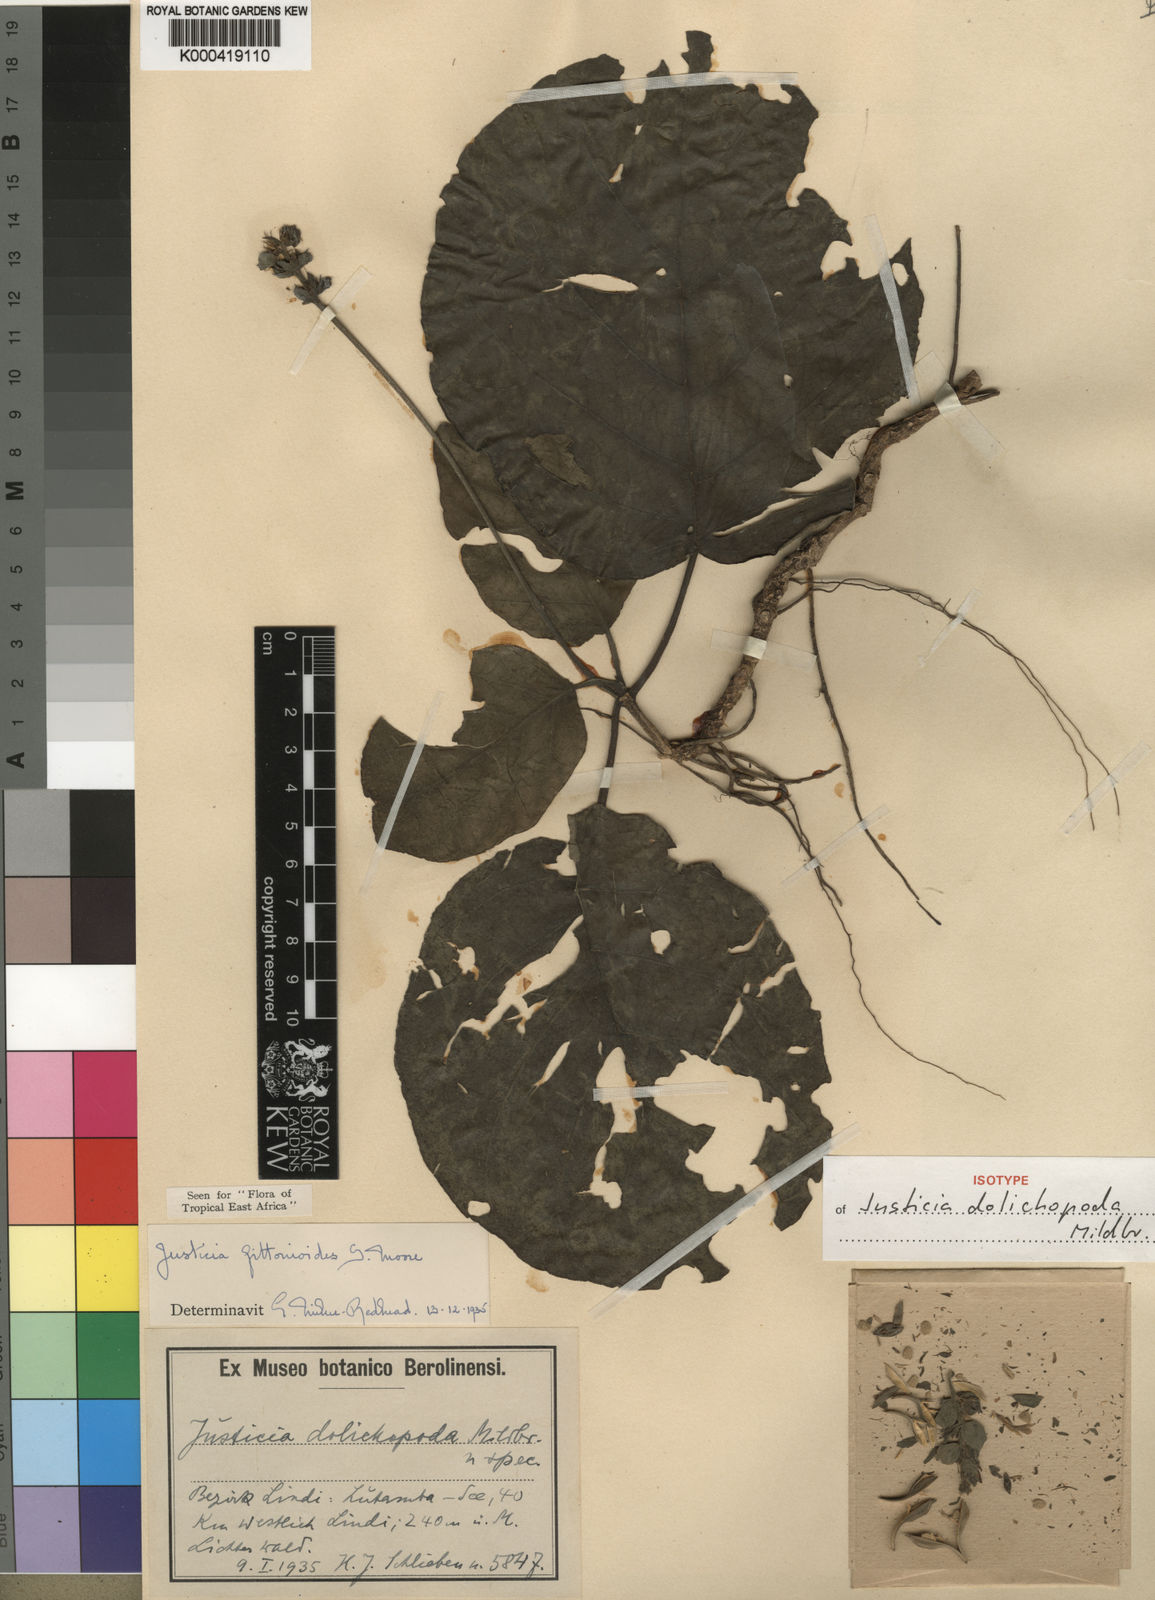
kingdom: Plantae
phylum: Tracheophyta
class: Magnoliopsida
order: Lamiales
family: Acanthaceae
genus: Nicoteba
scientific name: Nicoteba fittonioides
